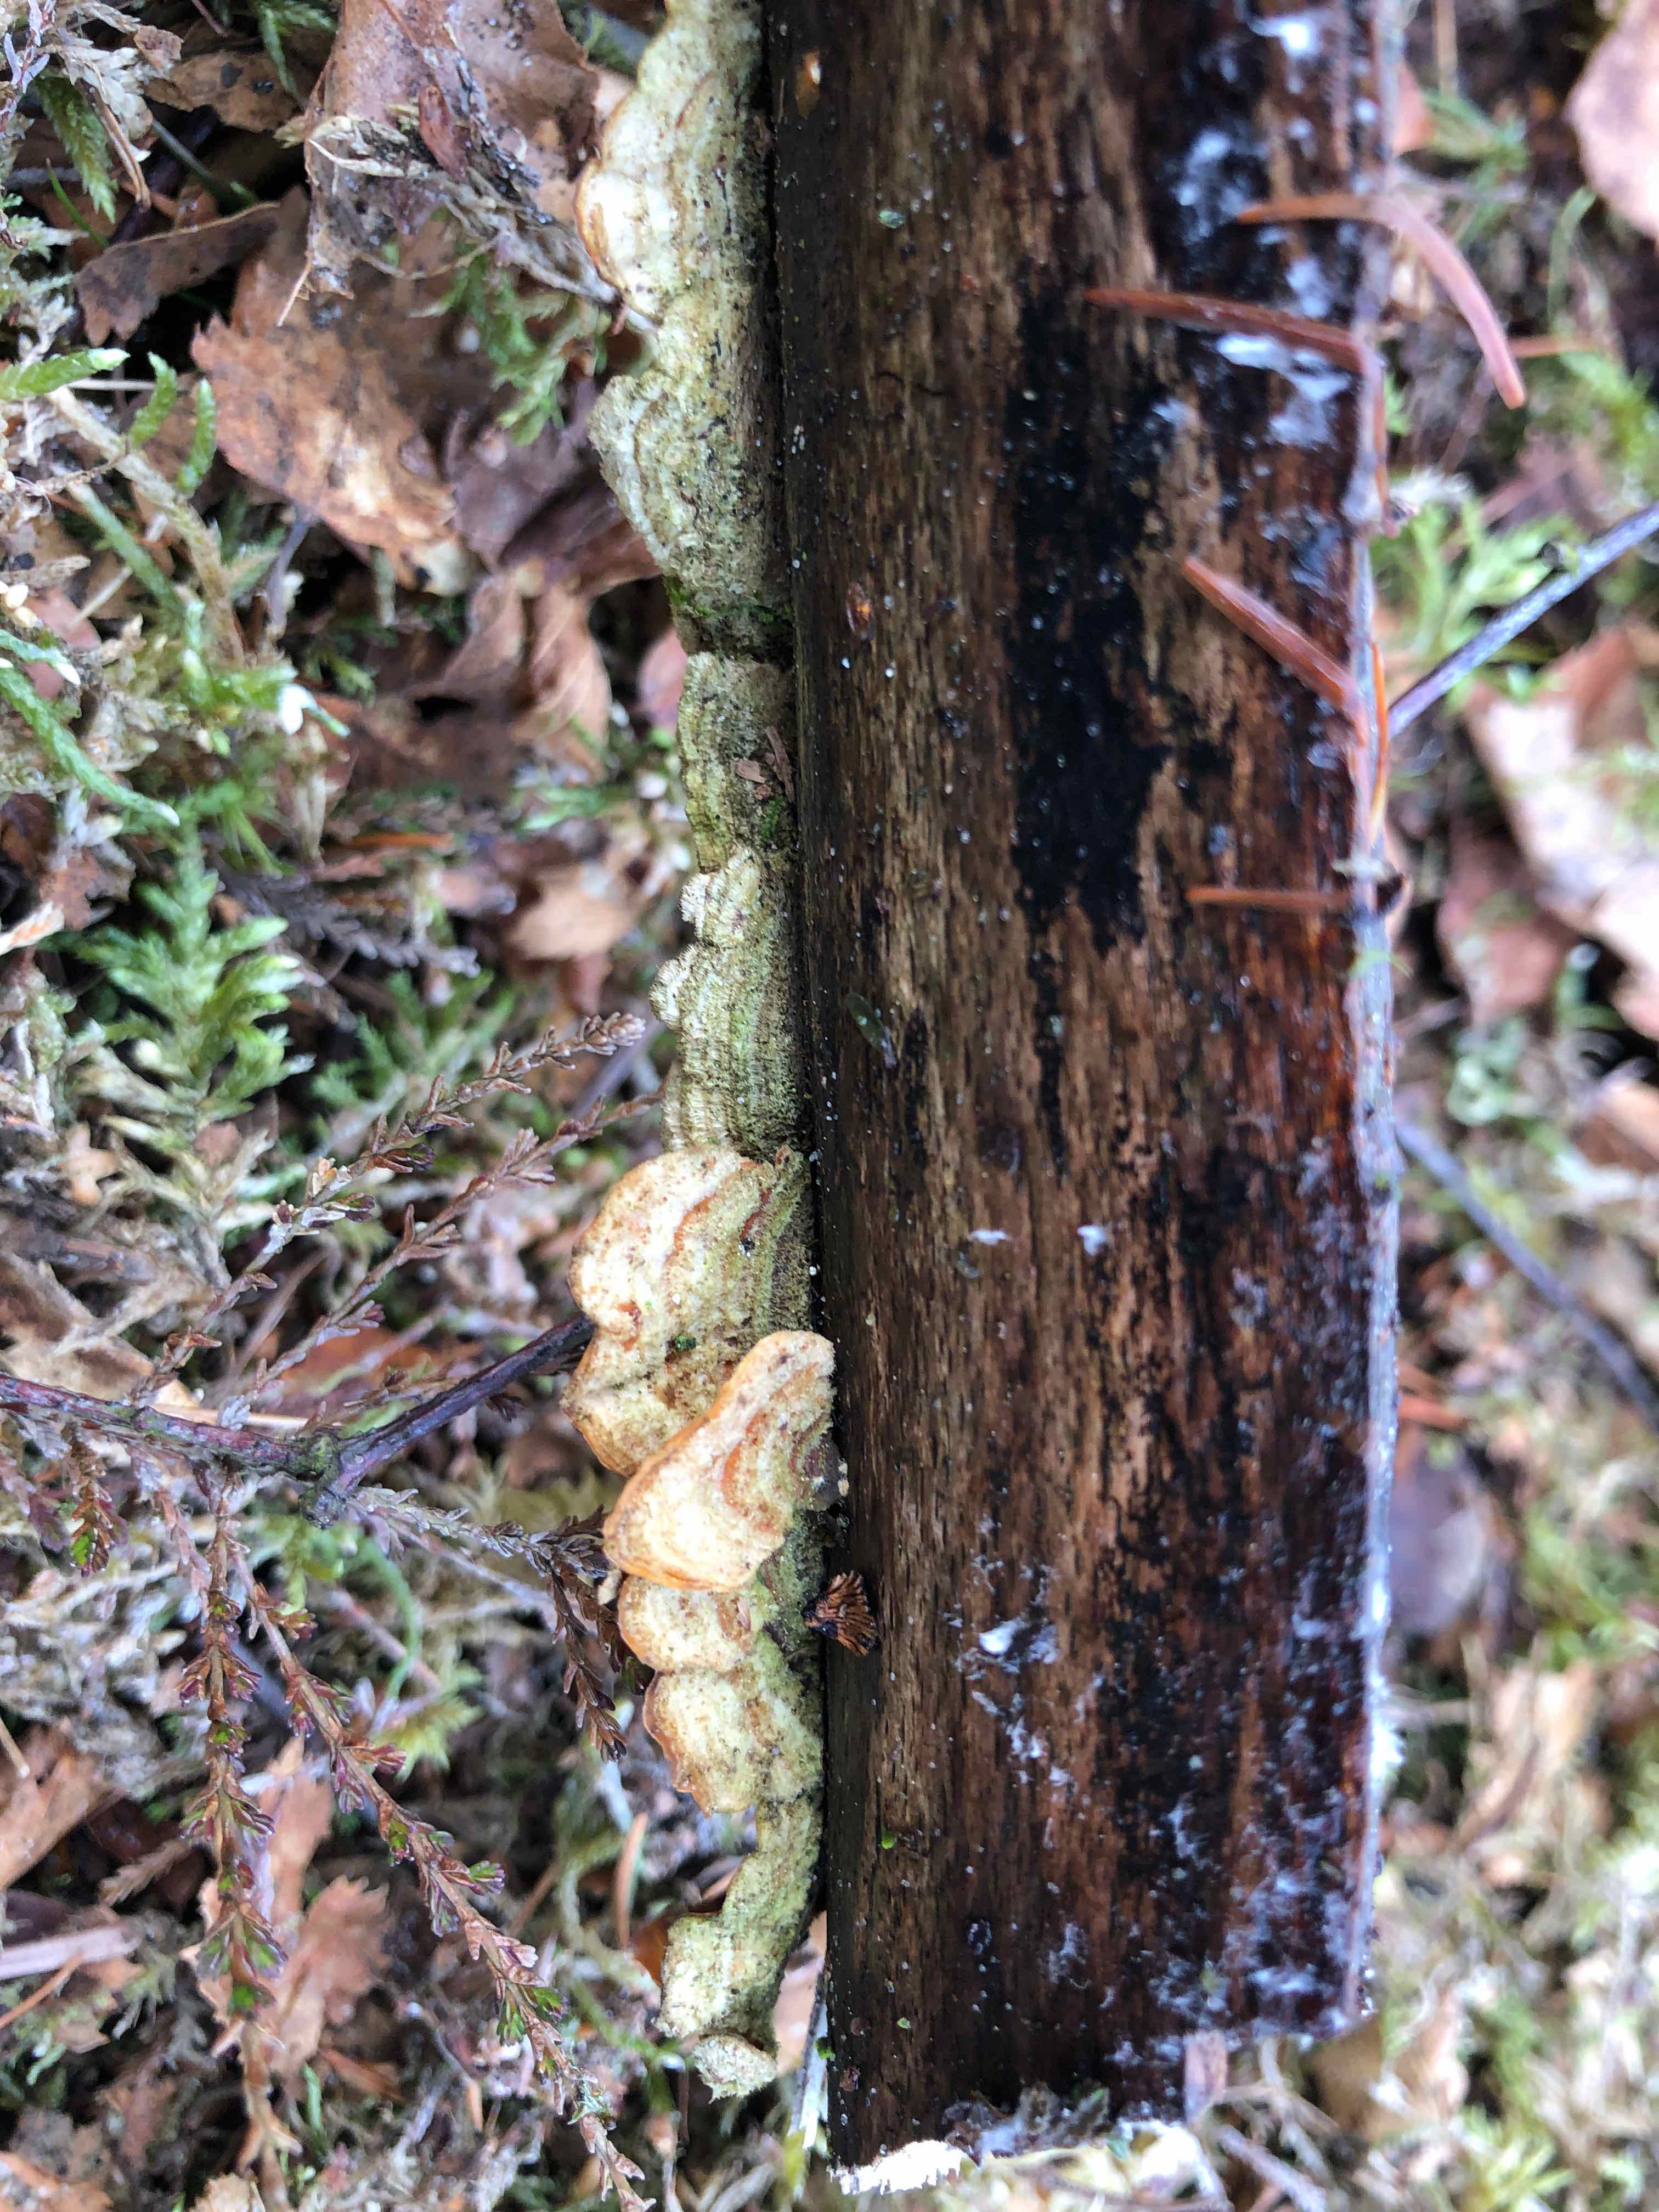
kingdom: Fungi
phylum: Basidiomycota
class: Agaricomycetes
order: Russulales
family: Stereaceae
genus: Stereum
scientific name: Stereum hirsutum
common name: håret lædersvamp
